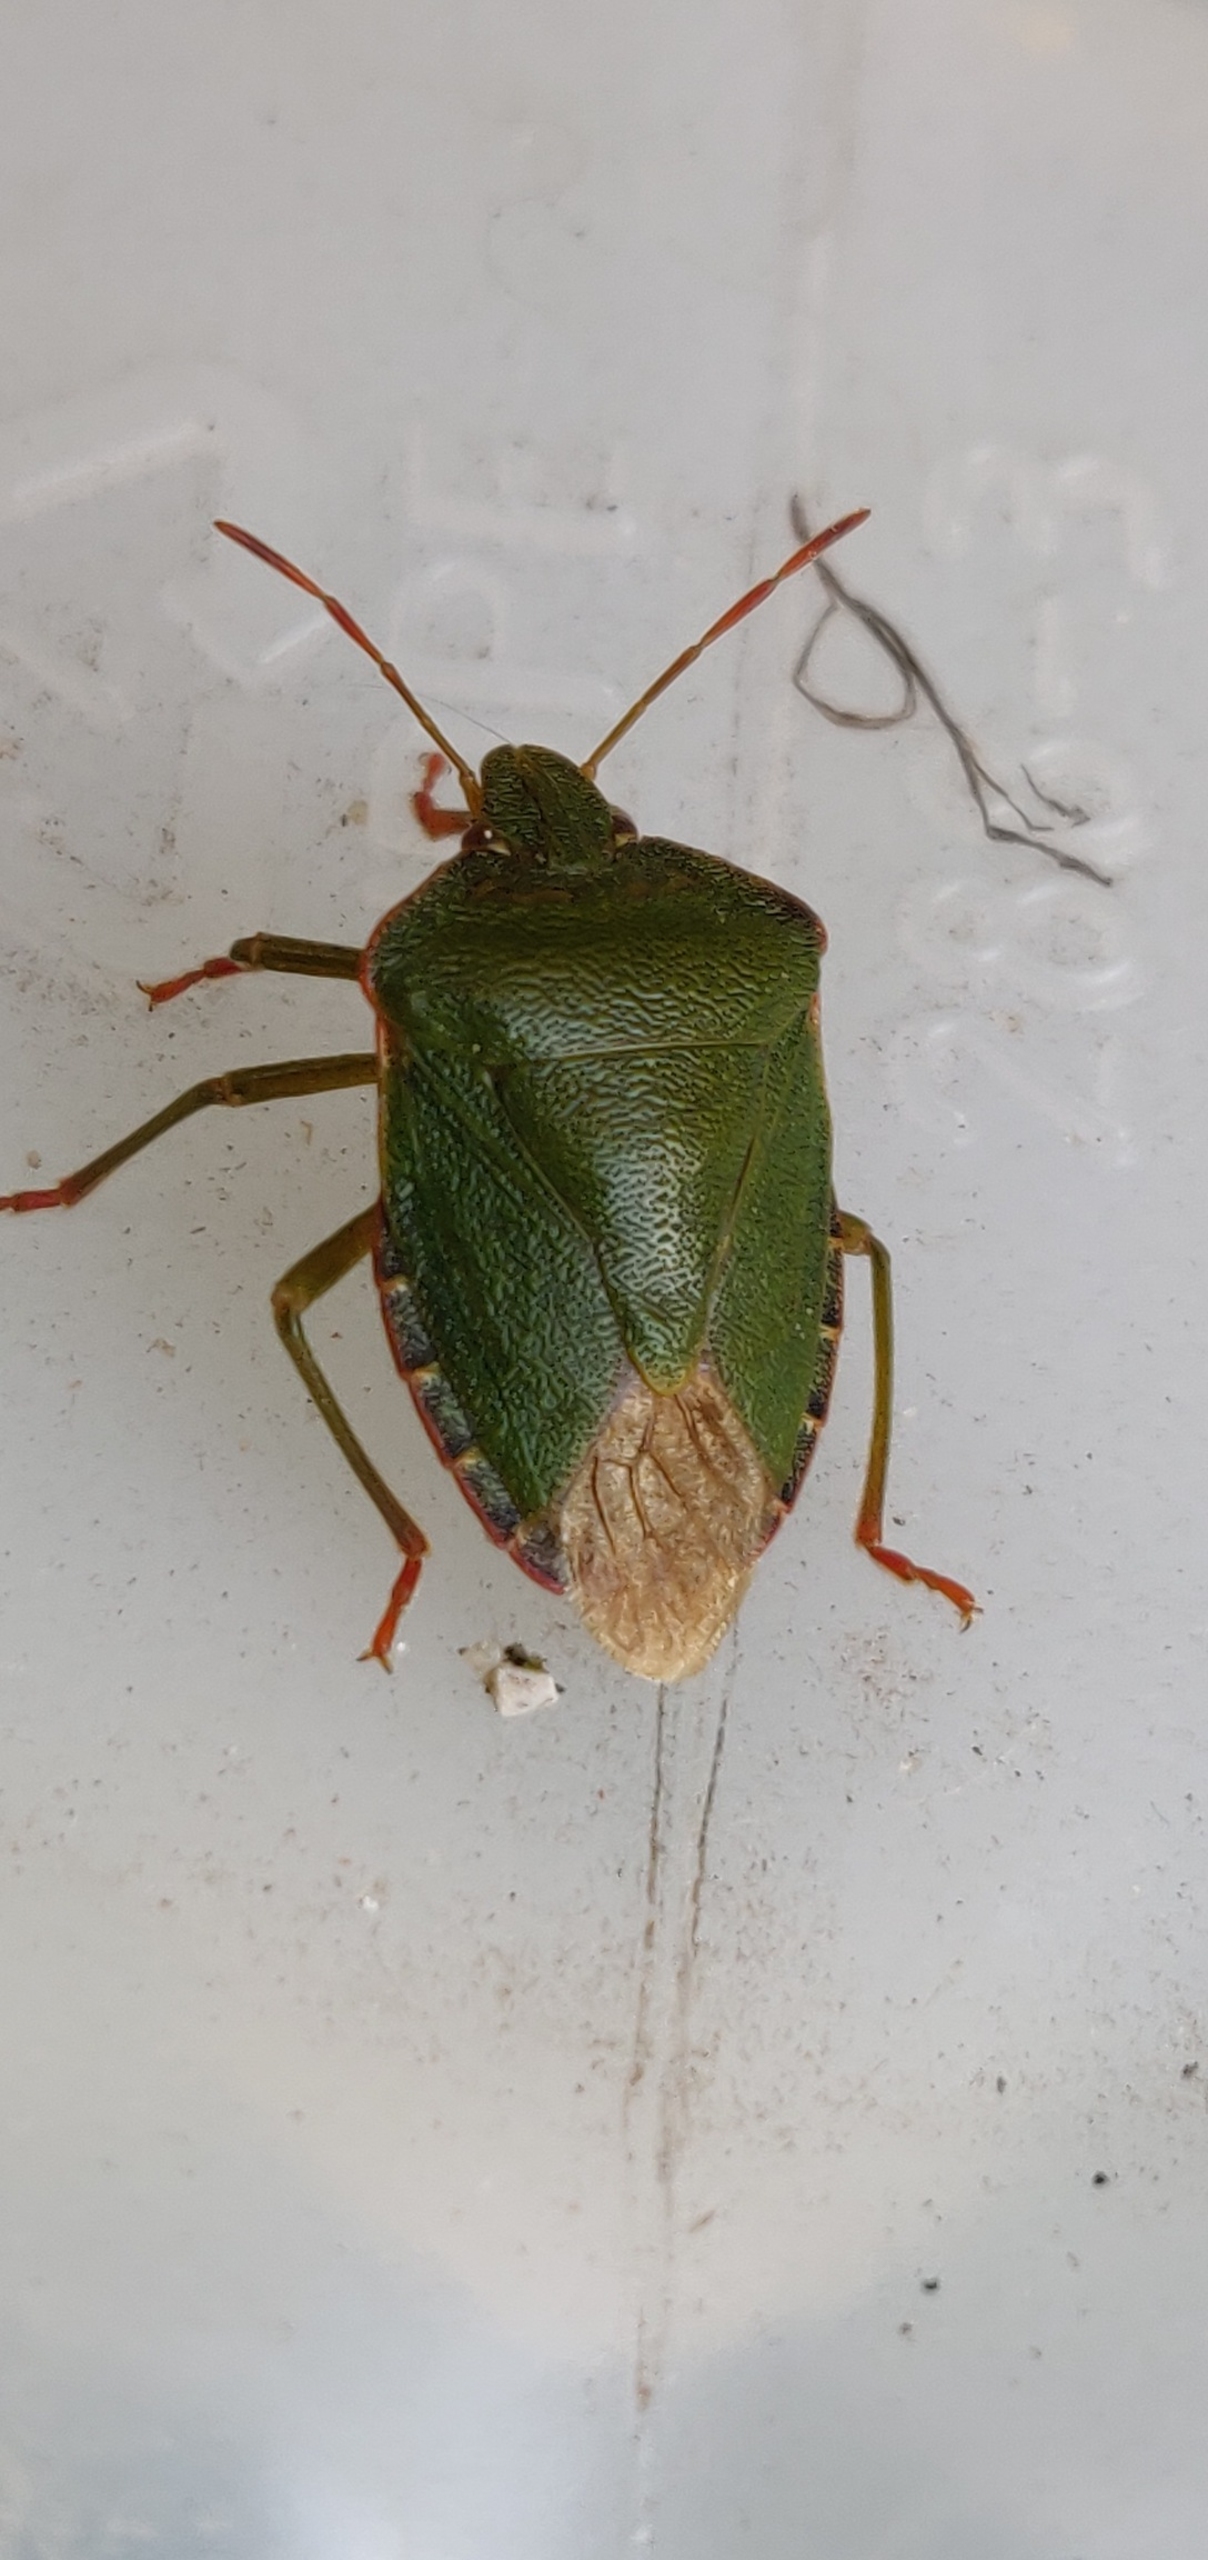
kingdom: Animalia
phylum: Arthropoda
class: Insecta
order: Hemiptera
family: Pentatomidae
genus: Palomena
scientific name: Palomena prasina
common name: Grøn bredtæge
